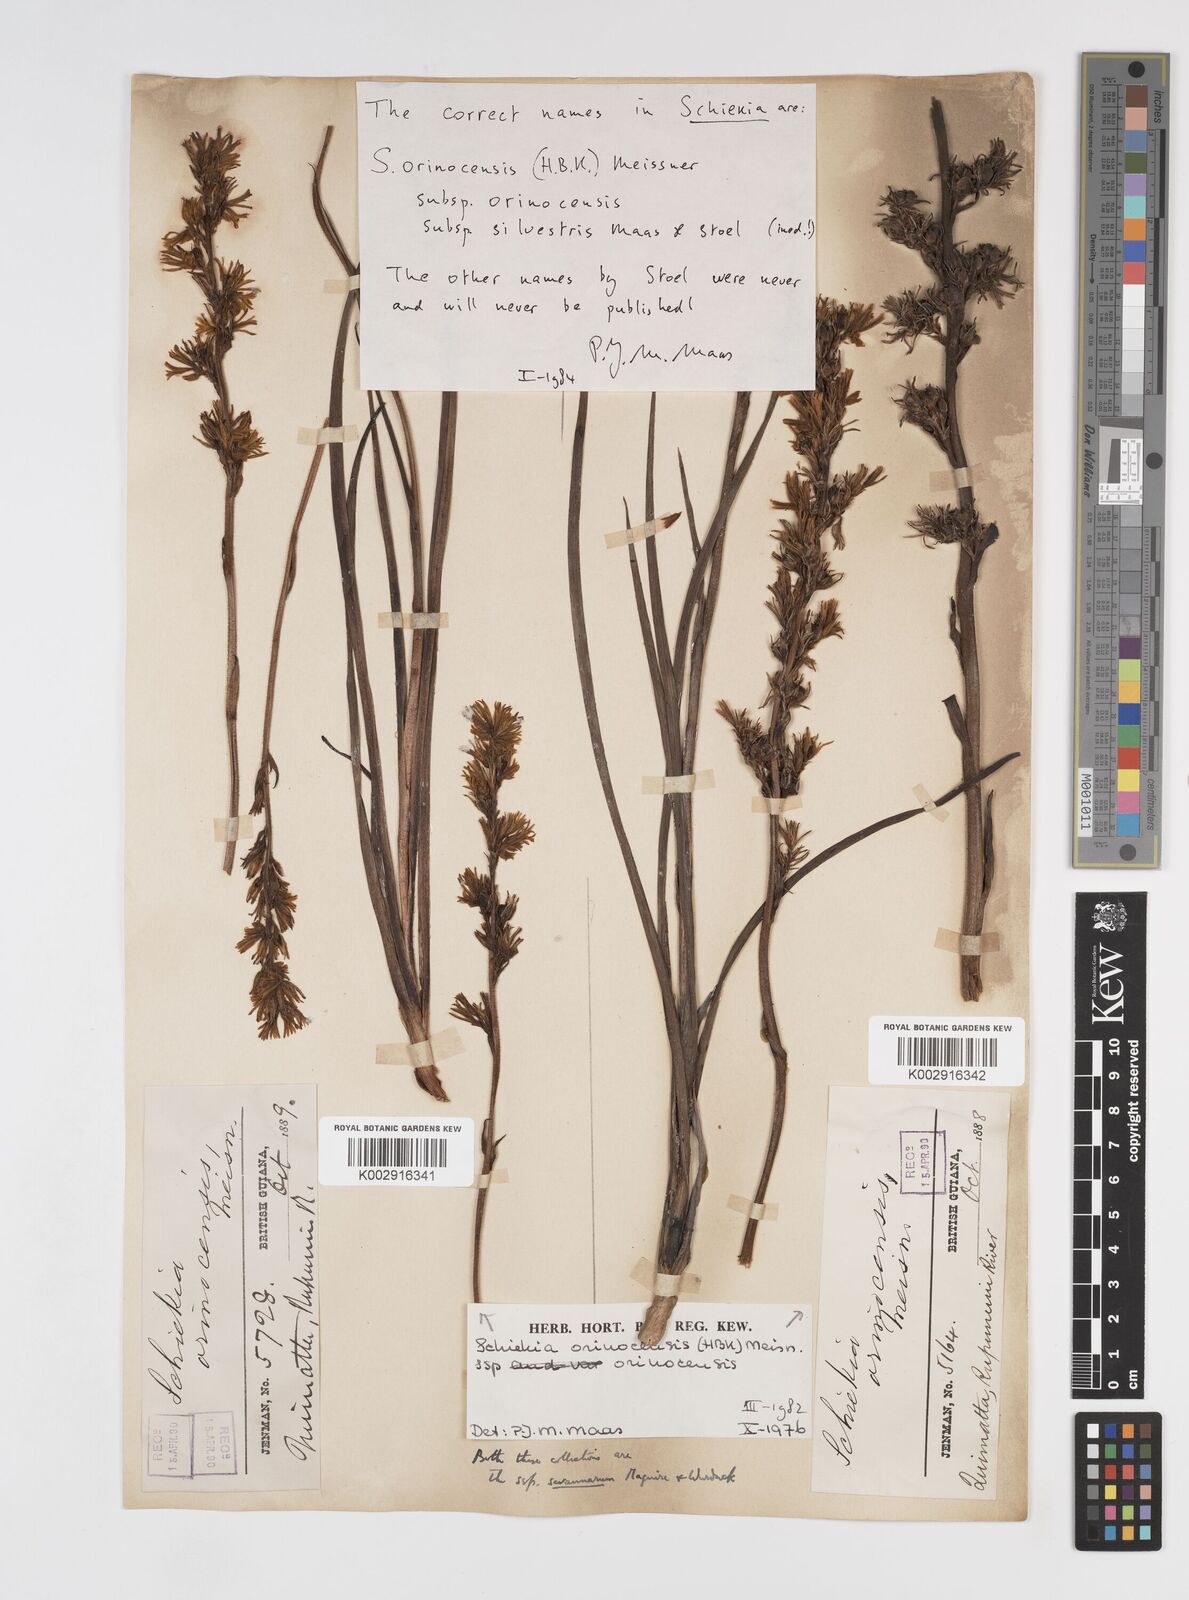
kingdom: Plantae
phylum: Tracheophyta
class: Liliopsida
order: Commelinales
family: Haemodoraceae
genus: Schiekia
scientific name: Schiekia orinocensis
